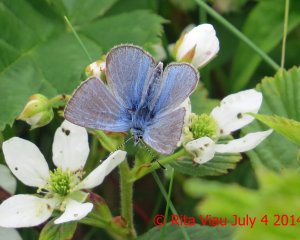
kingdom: Animalia
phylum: Arthropoda
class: Insecta
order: Lepidoptera
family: Lycaenidae
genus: Glaucopsyche
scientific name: Glaucopsyche lygdamus
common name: Silvery Blue
